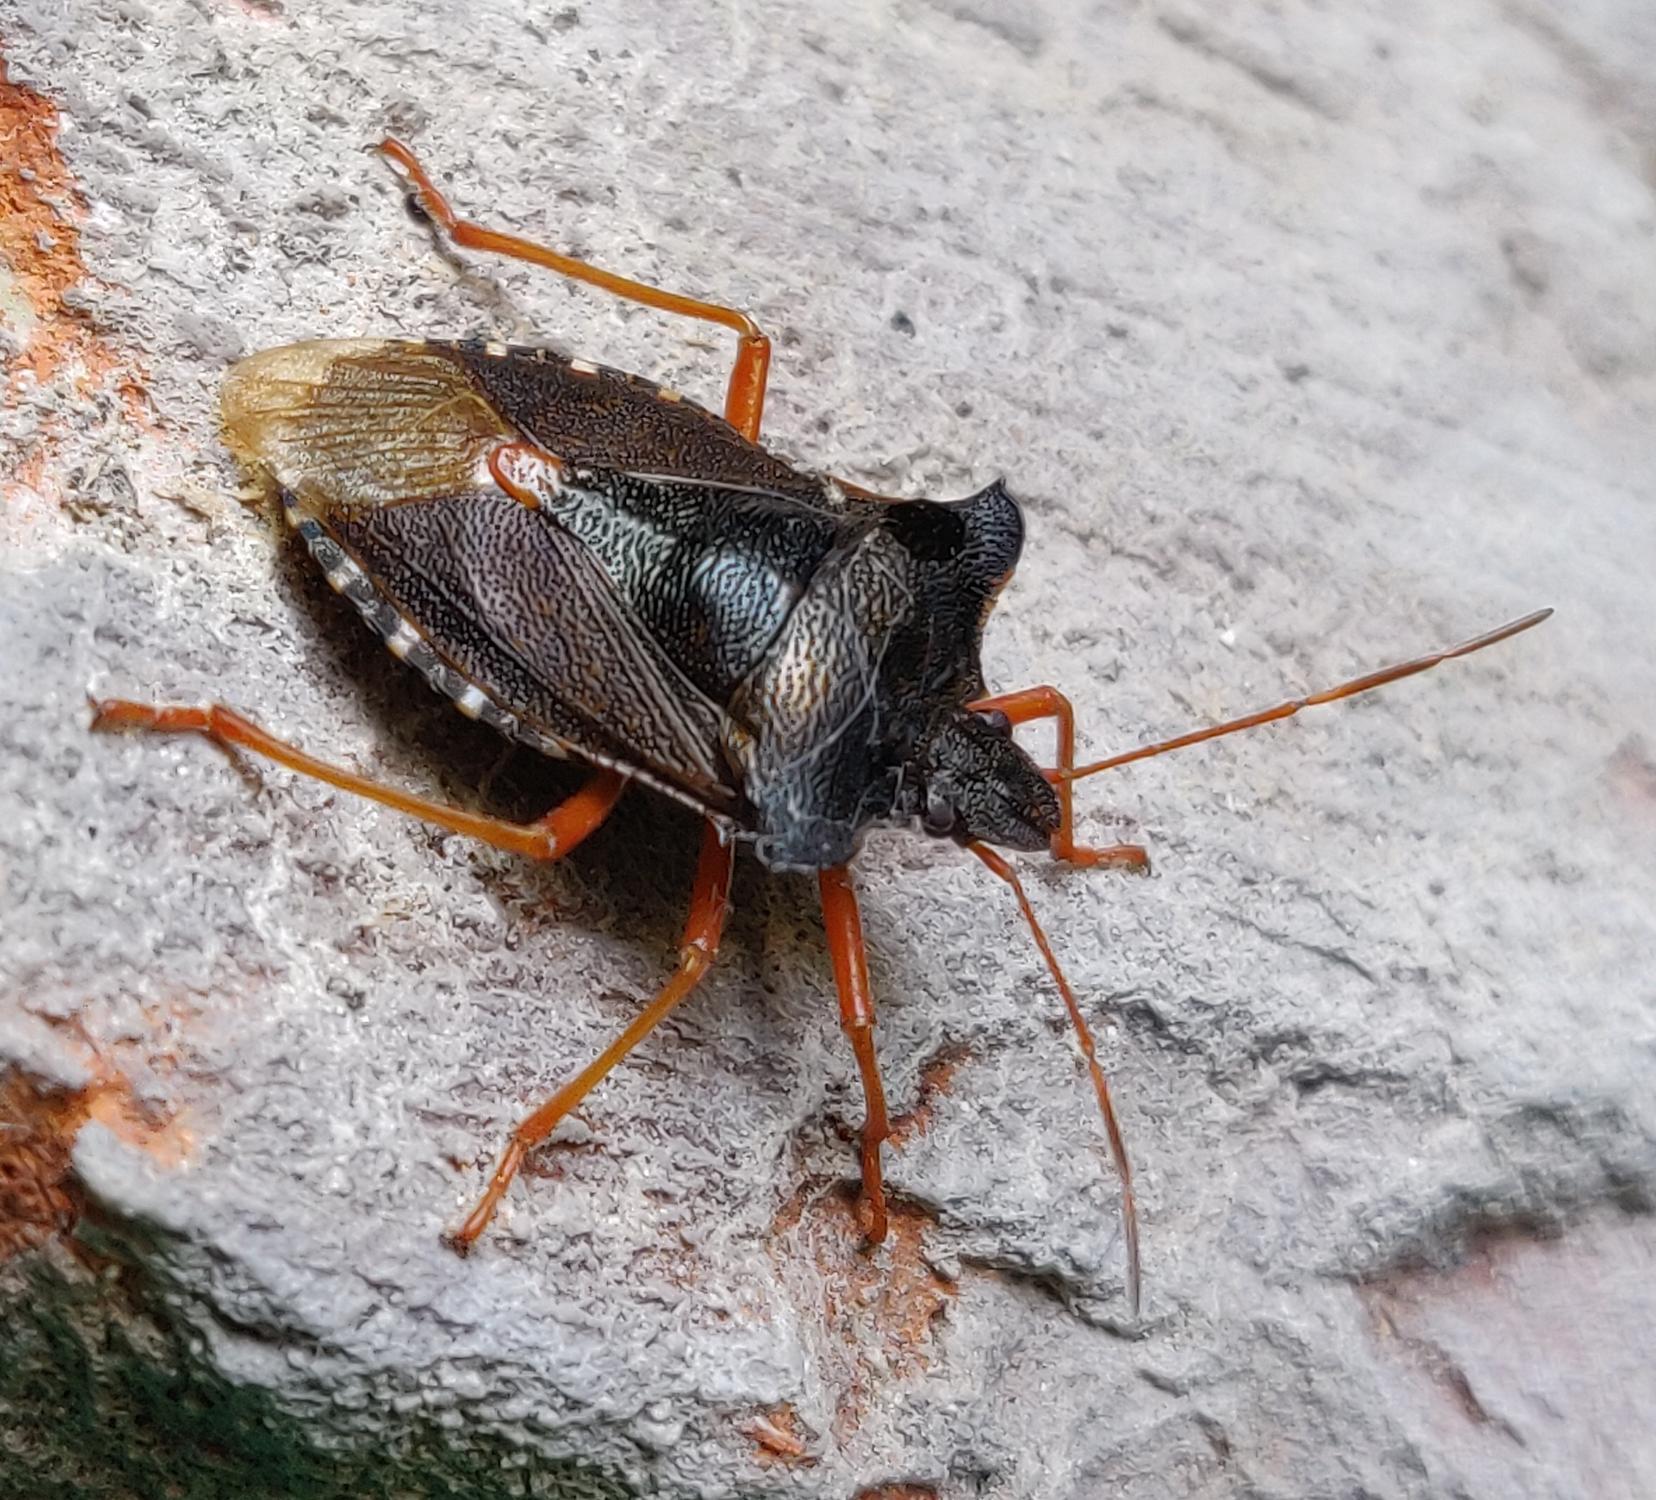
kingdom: Animalia
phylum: Arthropoda
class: Insecta
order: Hemiptera
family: Pentatomidae
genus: Pentatoma
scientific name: Pentatoma rufipes
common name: Rødbenet bredtæge
